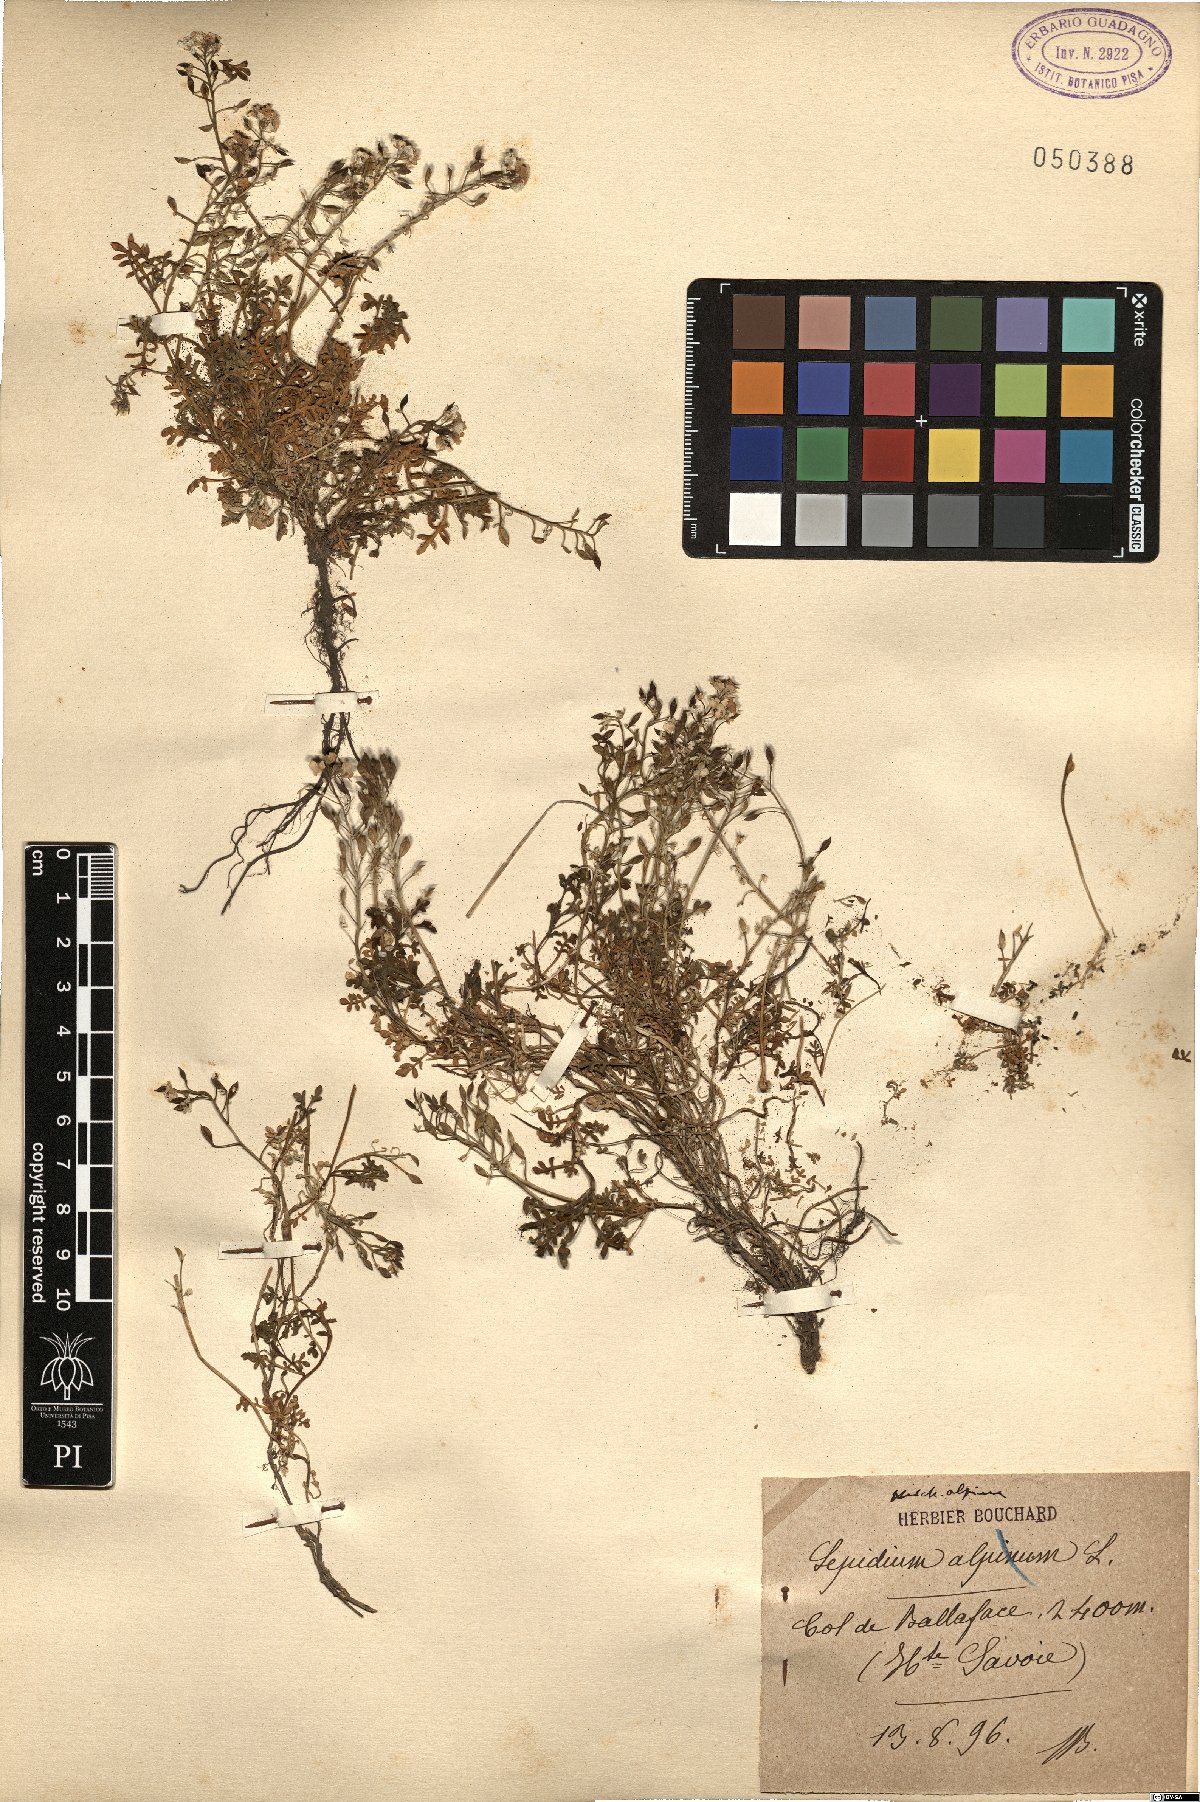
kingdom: Plantae
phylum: Tracheophyta
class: Magnoliopsida
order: Brassicales
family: Brassicaceae
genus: Hornungia
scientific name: Hornungia alpina
